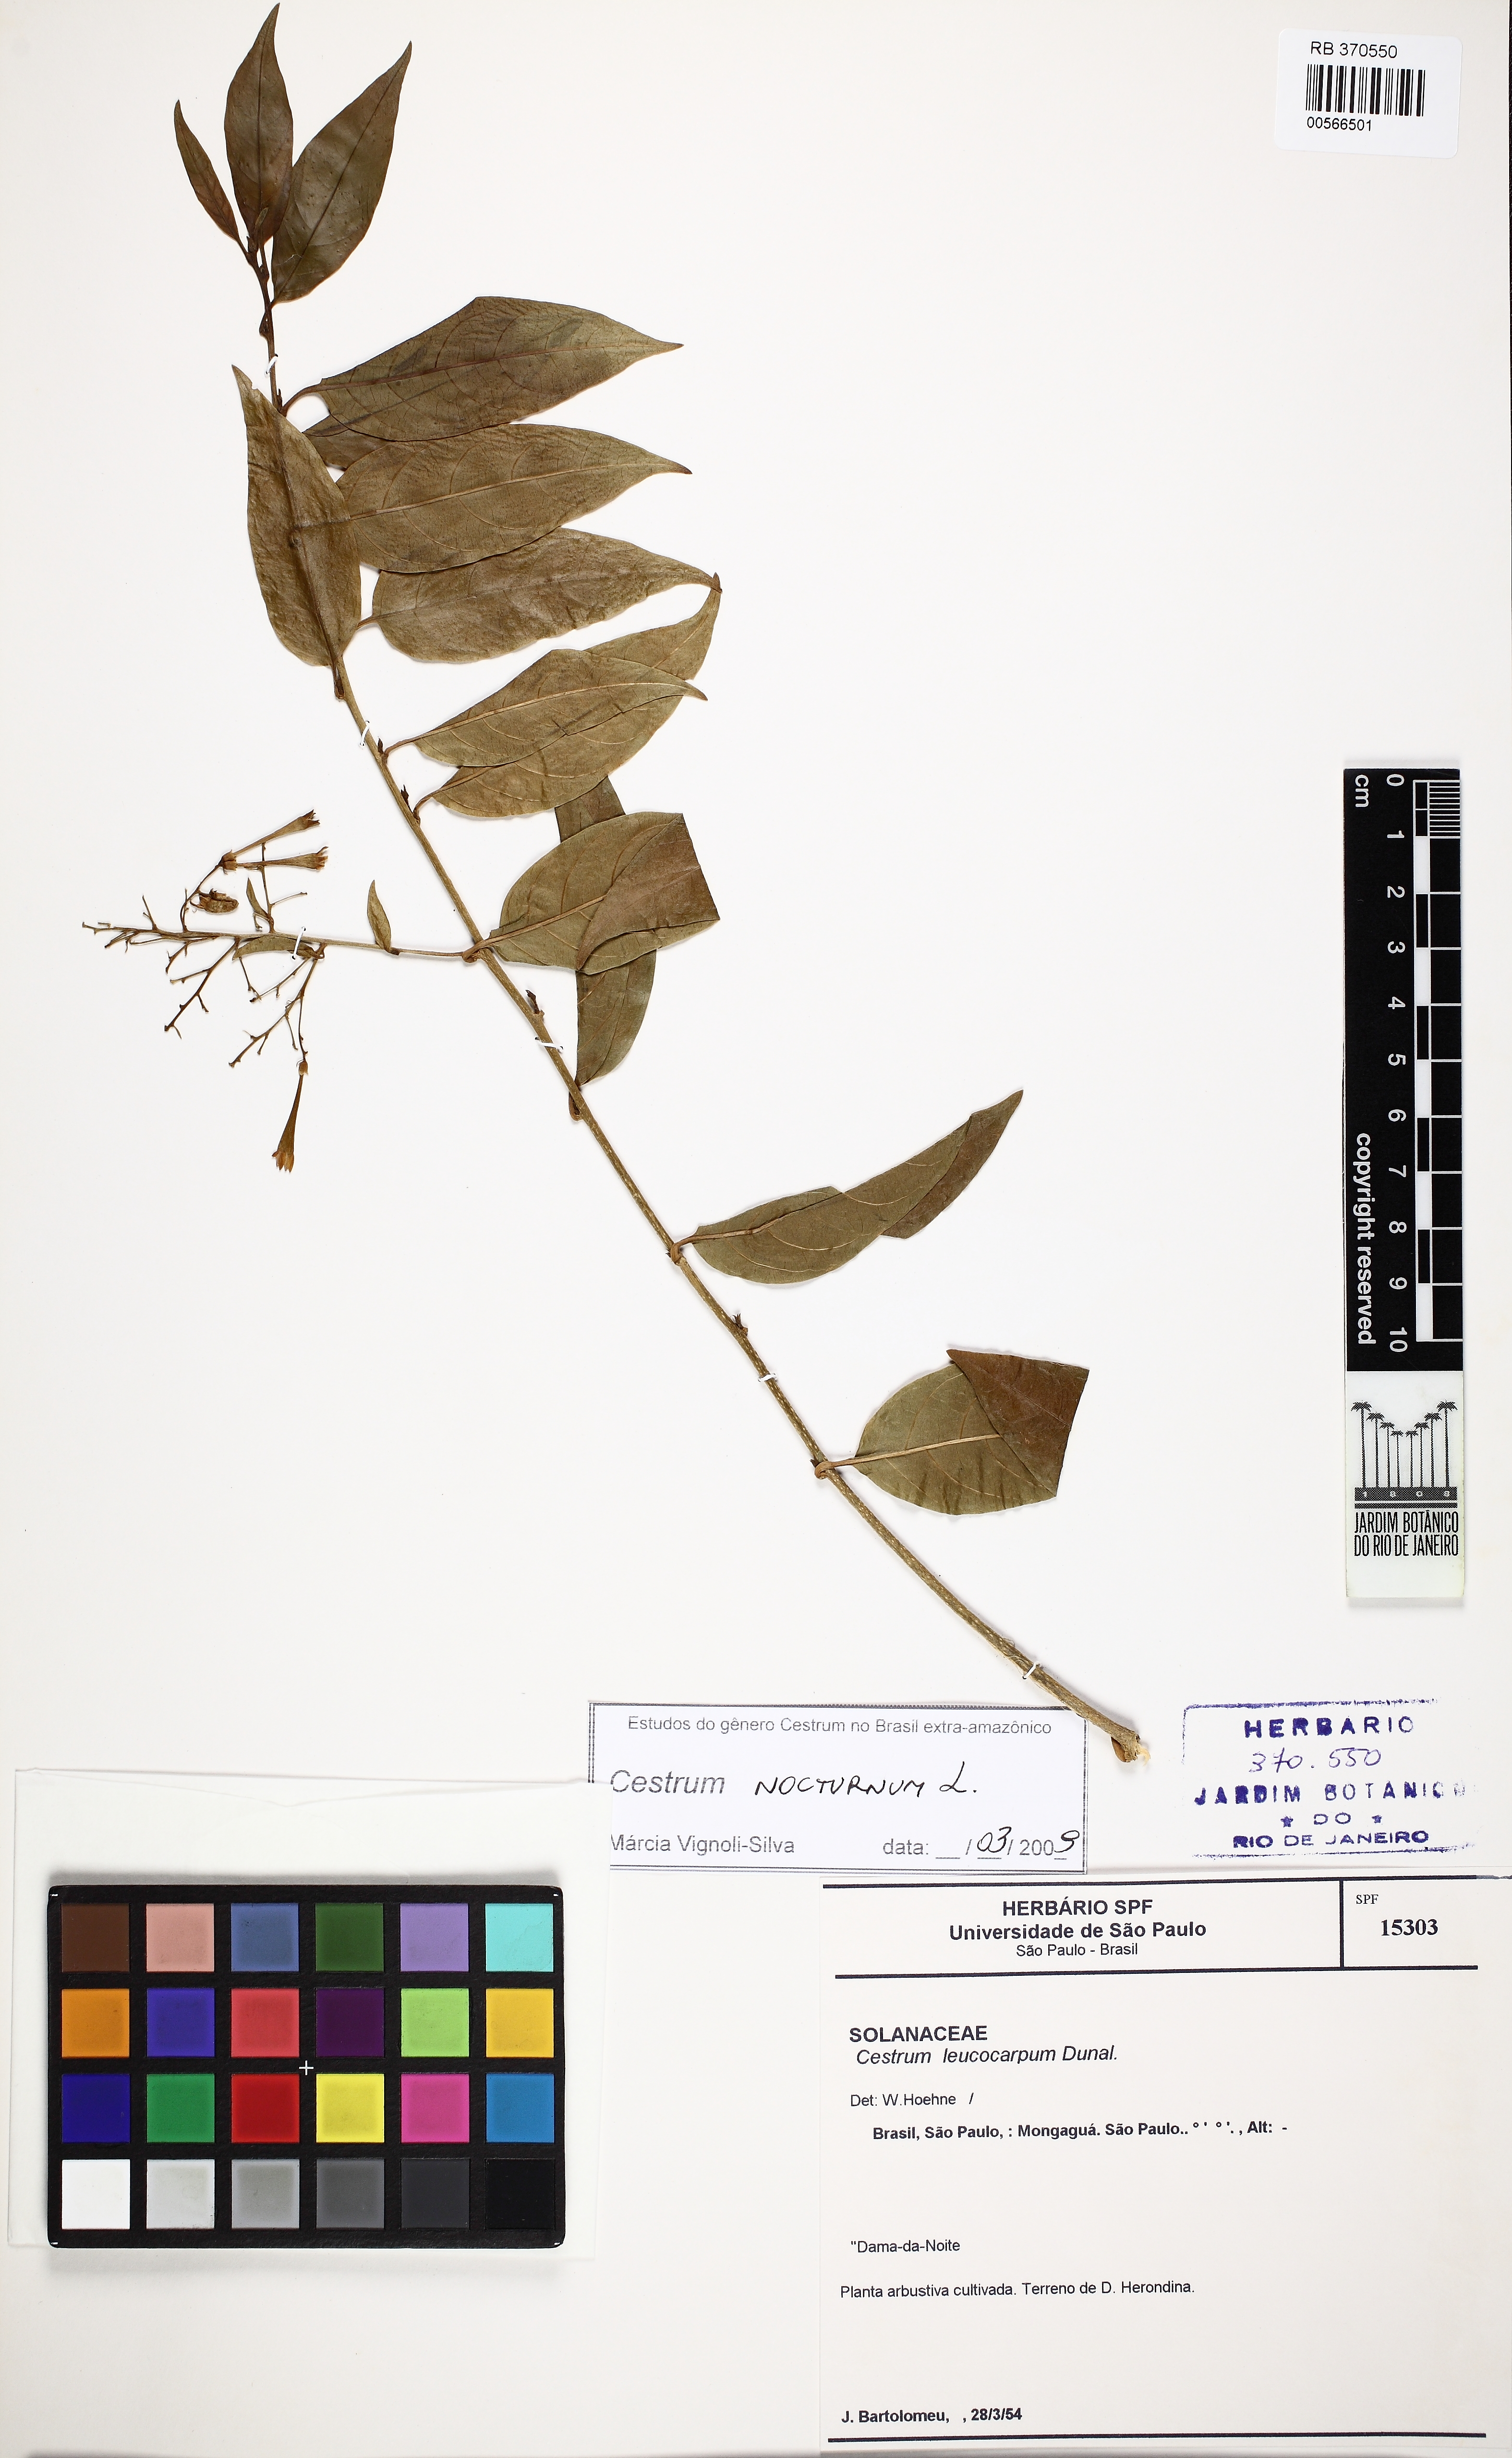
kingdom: Plantae
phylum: Tracheophyta
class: Magnoliopsida
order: Solanales
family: Solanaceae
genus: Cestrum
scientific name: Cestrum nocturnum
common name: Night jessamine
